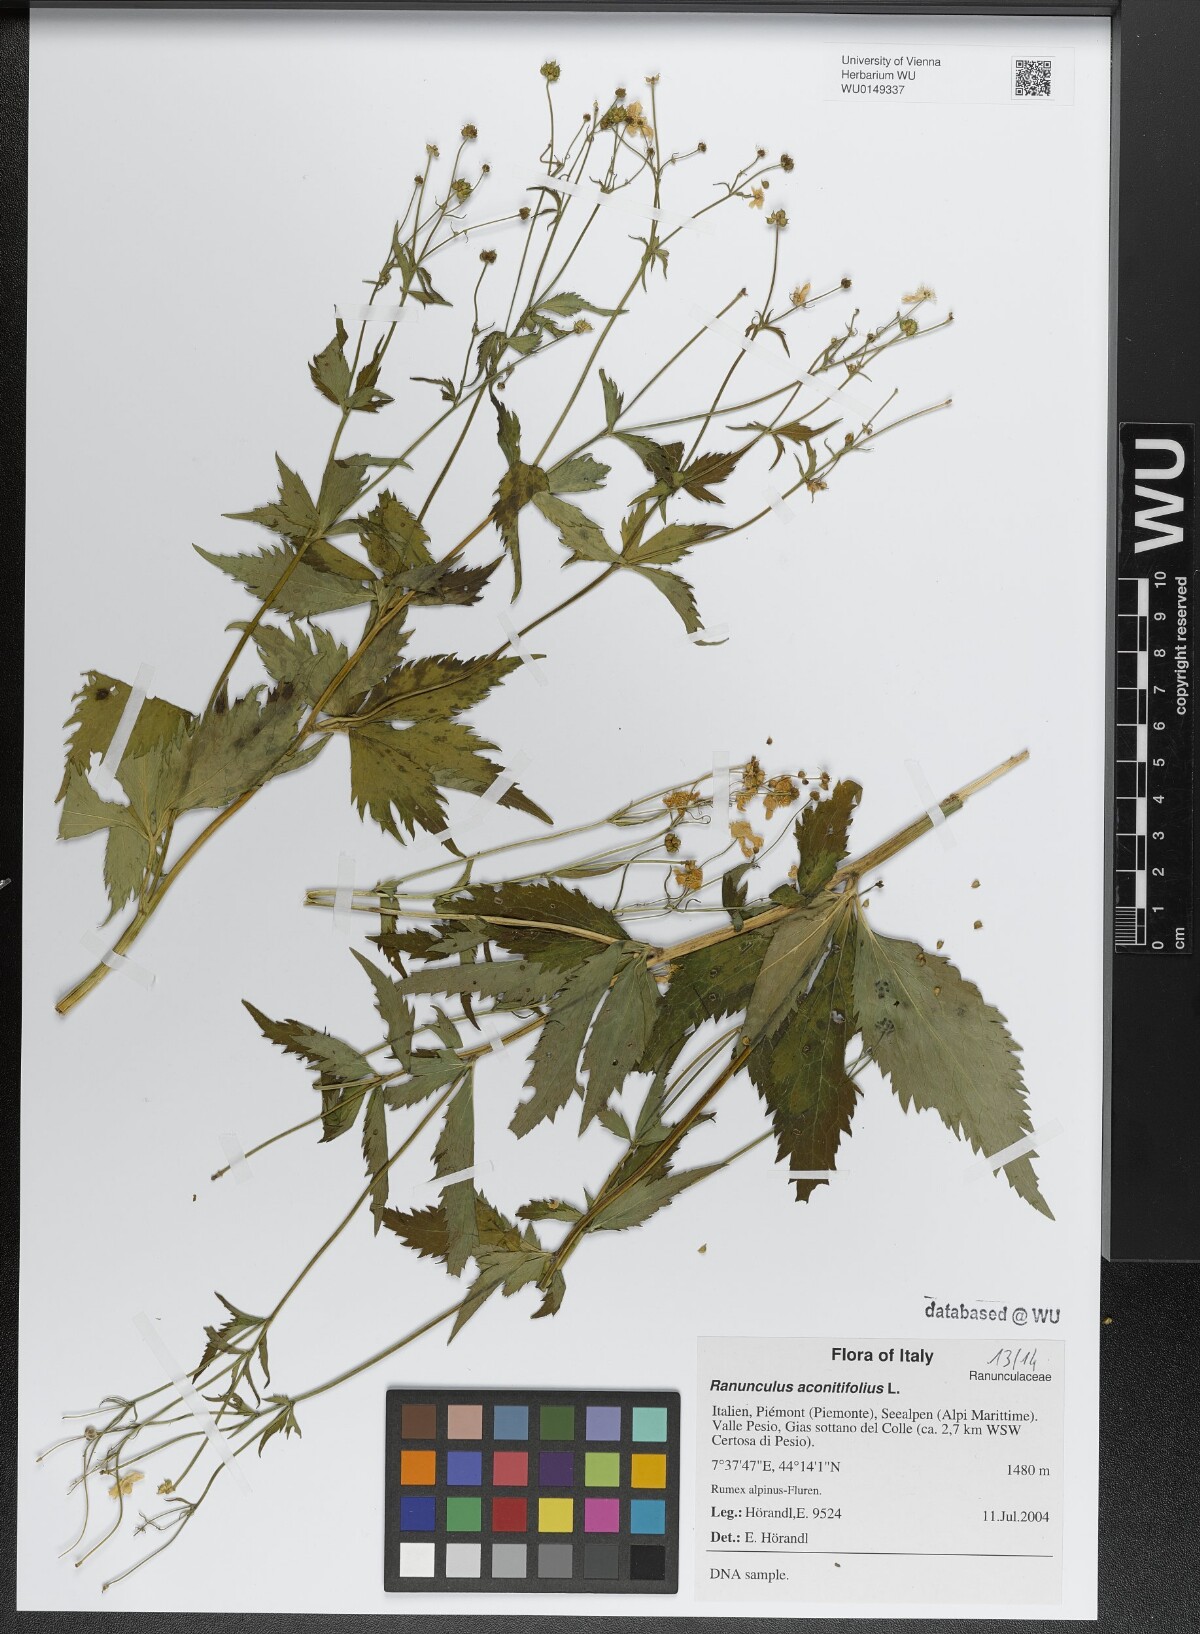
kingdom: Plantae
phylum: Tracheophyta
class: Magnoliopsida
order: Ranunculales
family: Ranunculaceae
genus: Ranunculus
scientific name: Ranunculus aconitifolius
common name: Aconite-leaved buttercup
